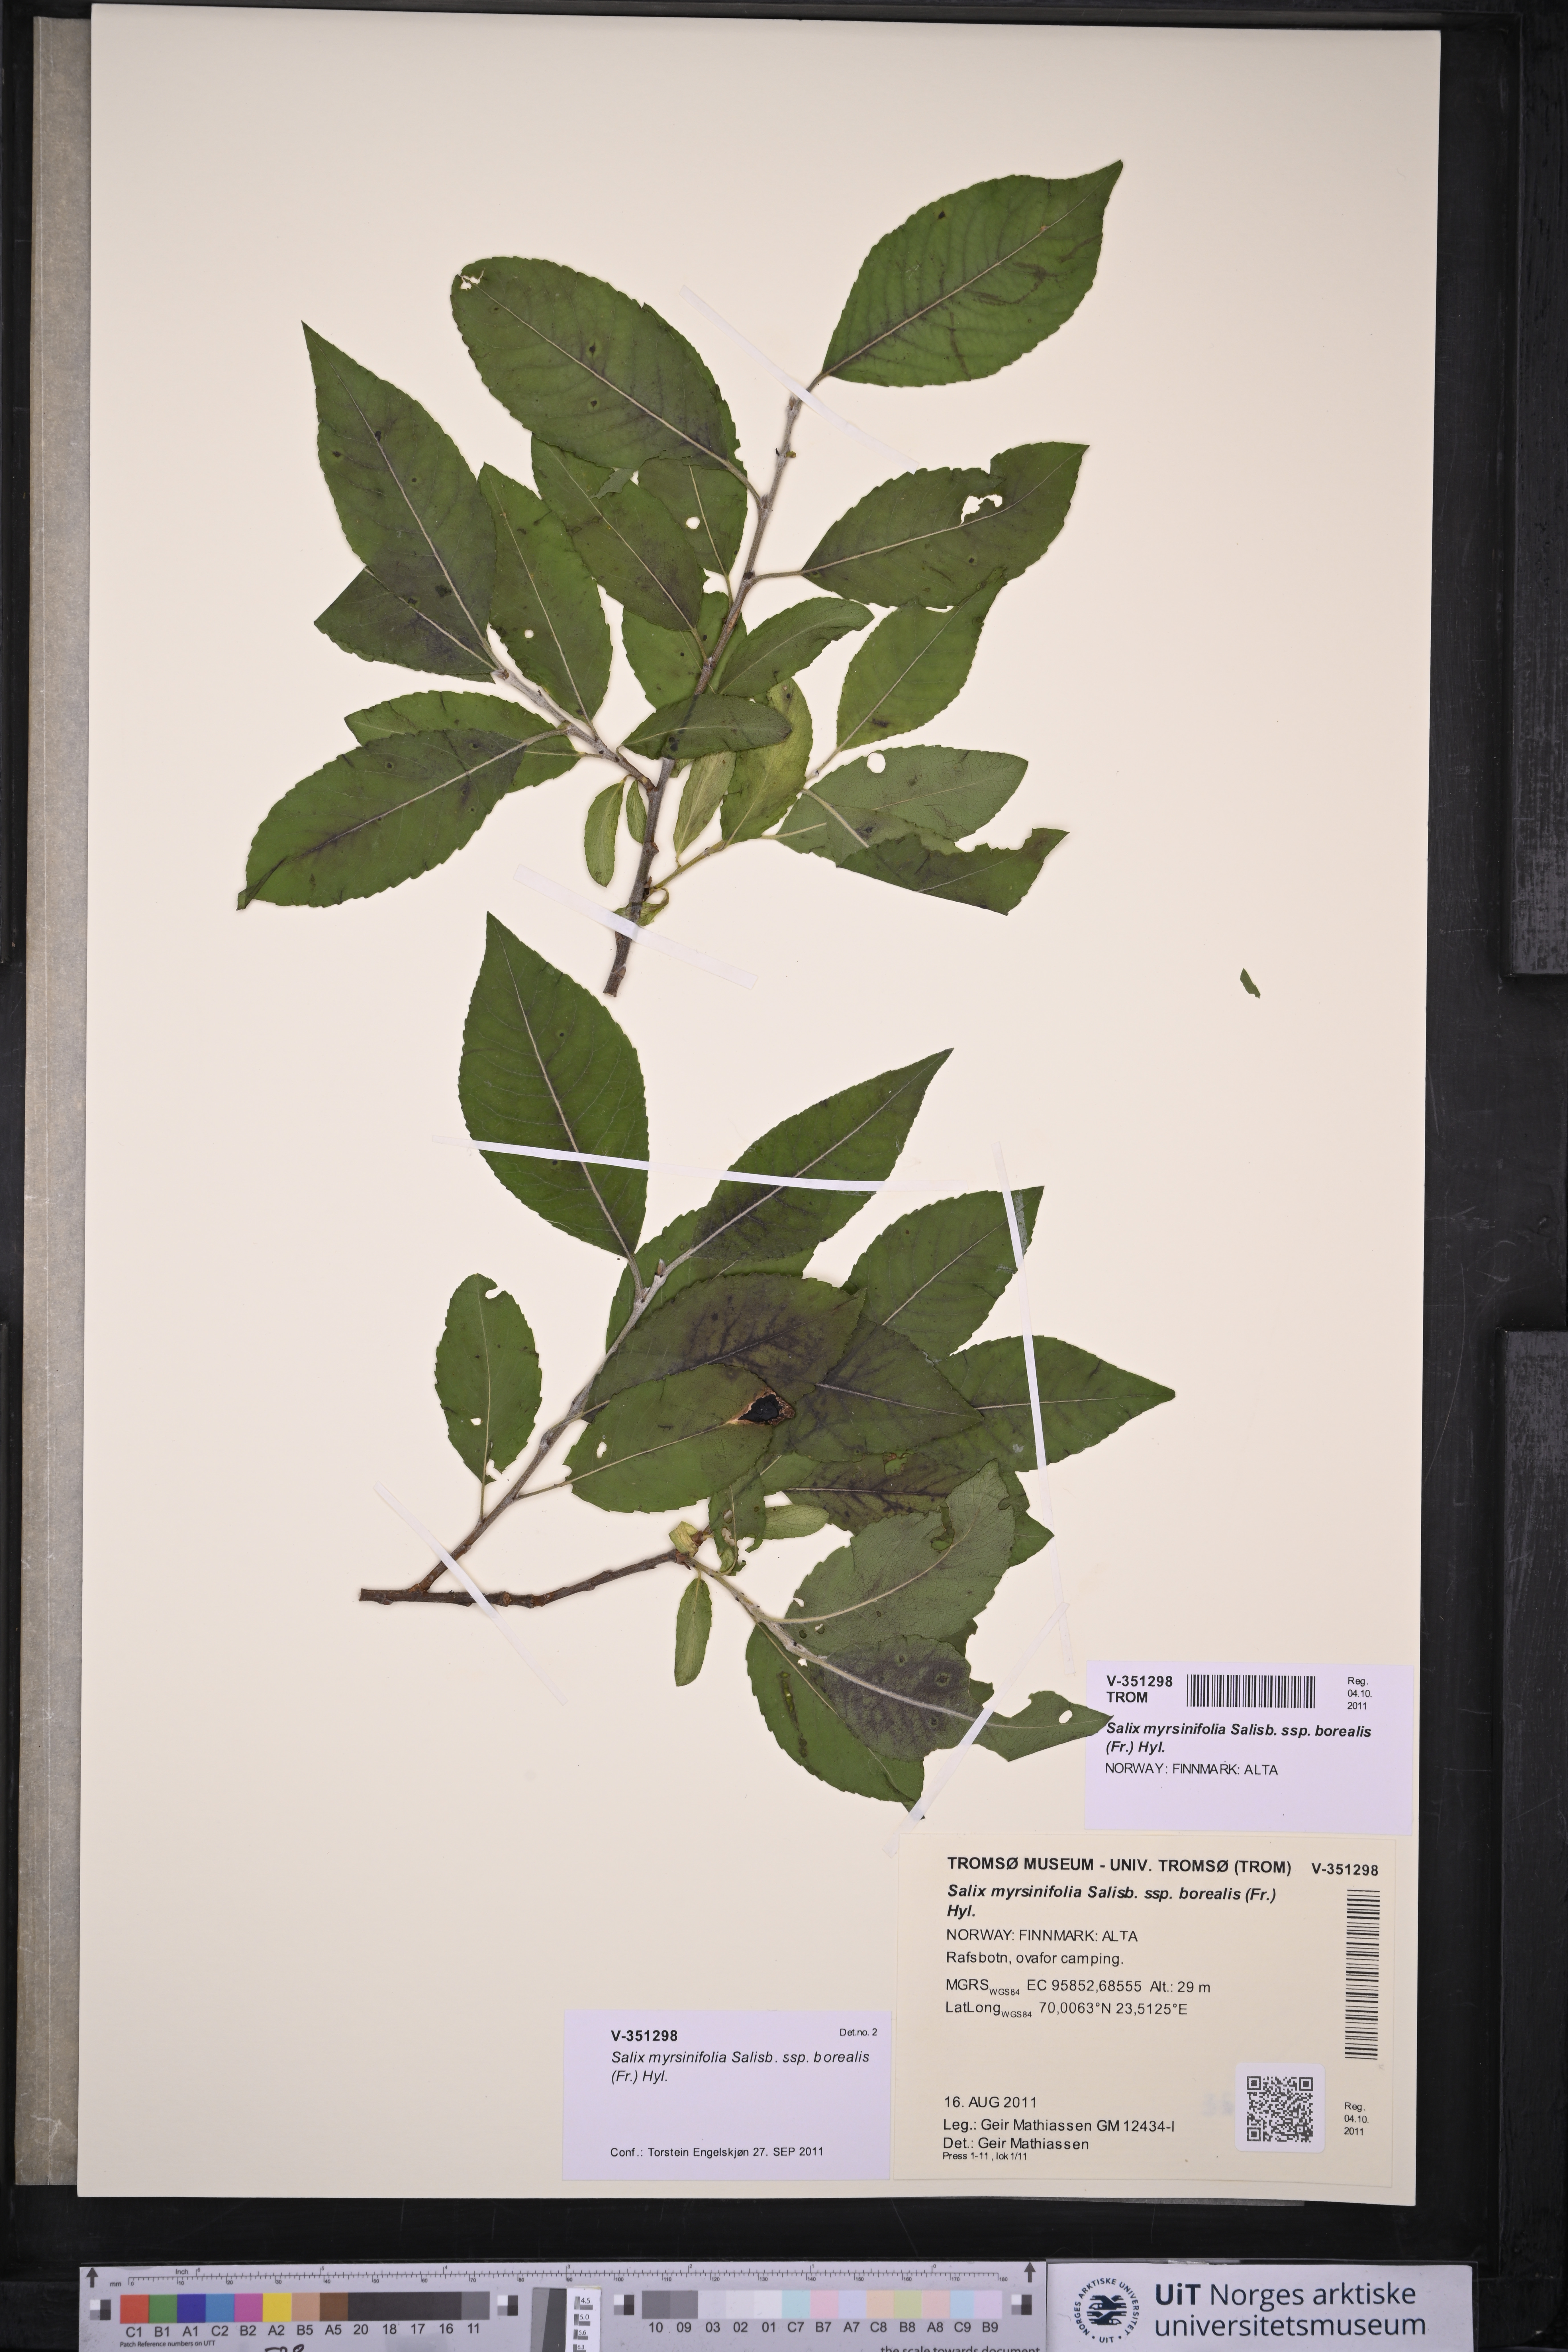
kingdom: Plantae
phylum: Tracheophyta
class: Magnoliopsida
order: Malpighiales
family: Salicaceae
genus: Salix
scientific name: Salix myrsinifolia
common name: Dark-leaved willow
